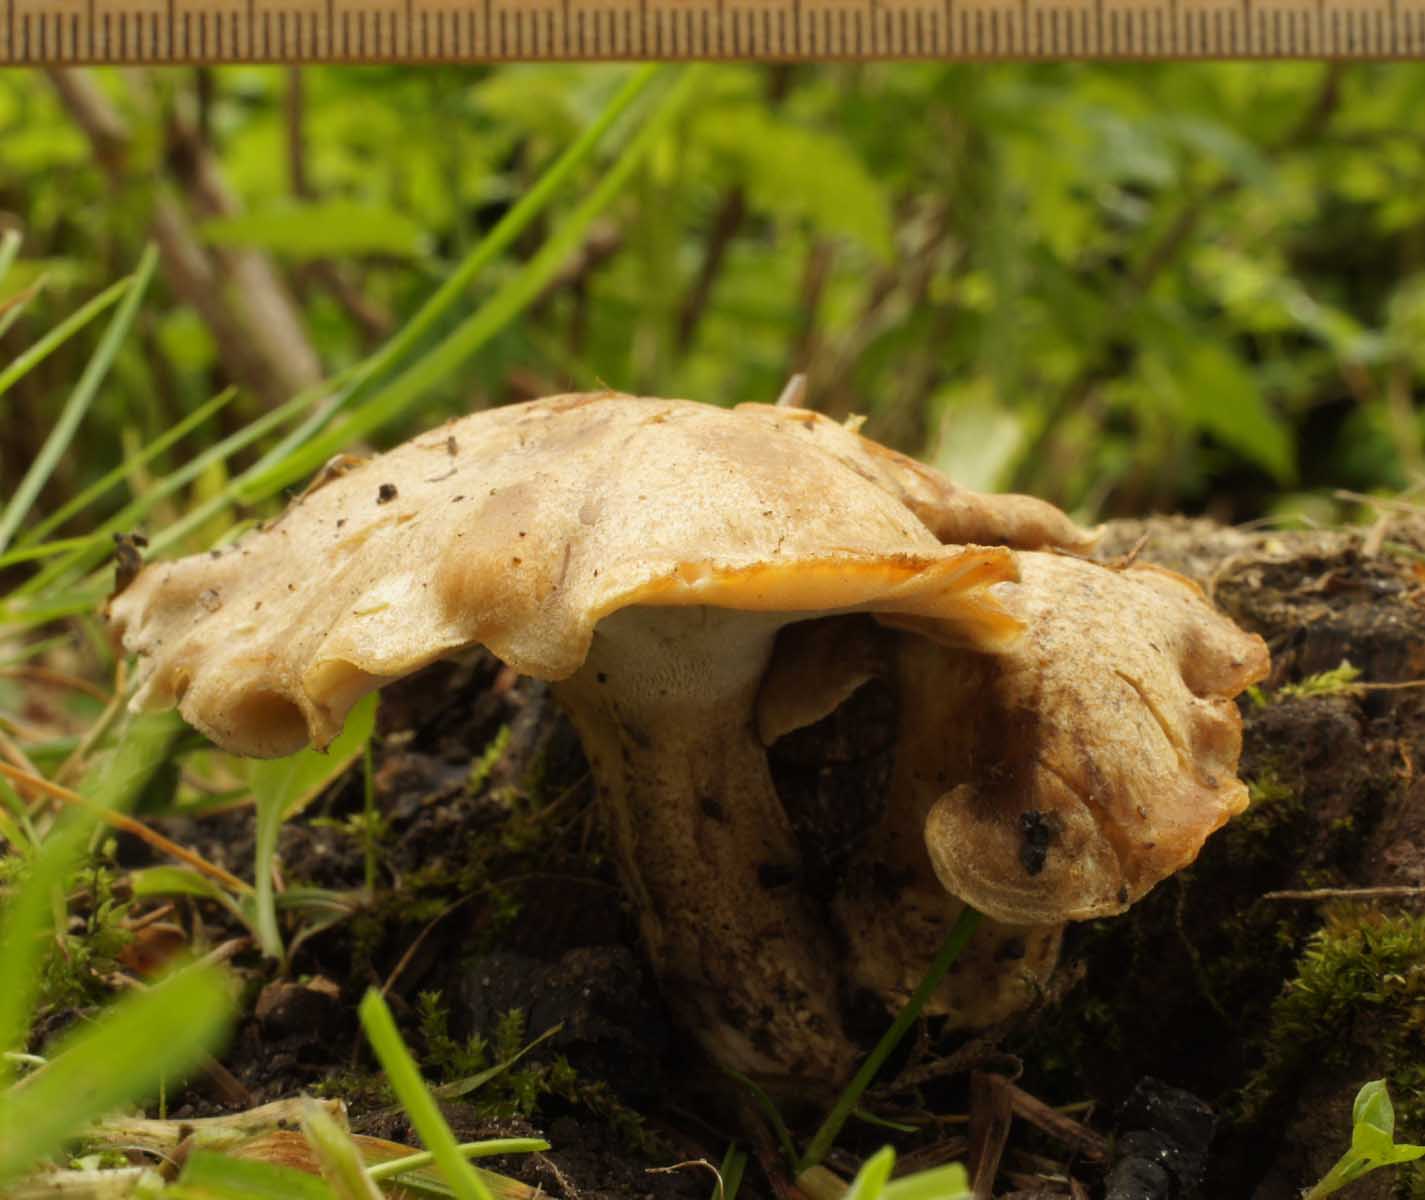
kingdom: Fungi
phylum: Basidiomycota
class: Agaricomycetes
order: Polyporales
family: Polyporaceae
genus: Lentinus
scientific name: Lentinus substrictus
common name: forårs-stilkporesvamp
